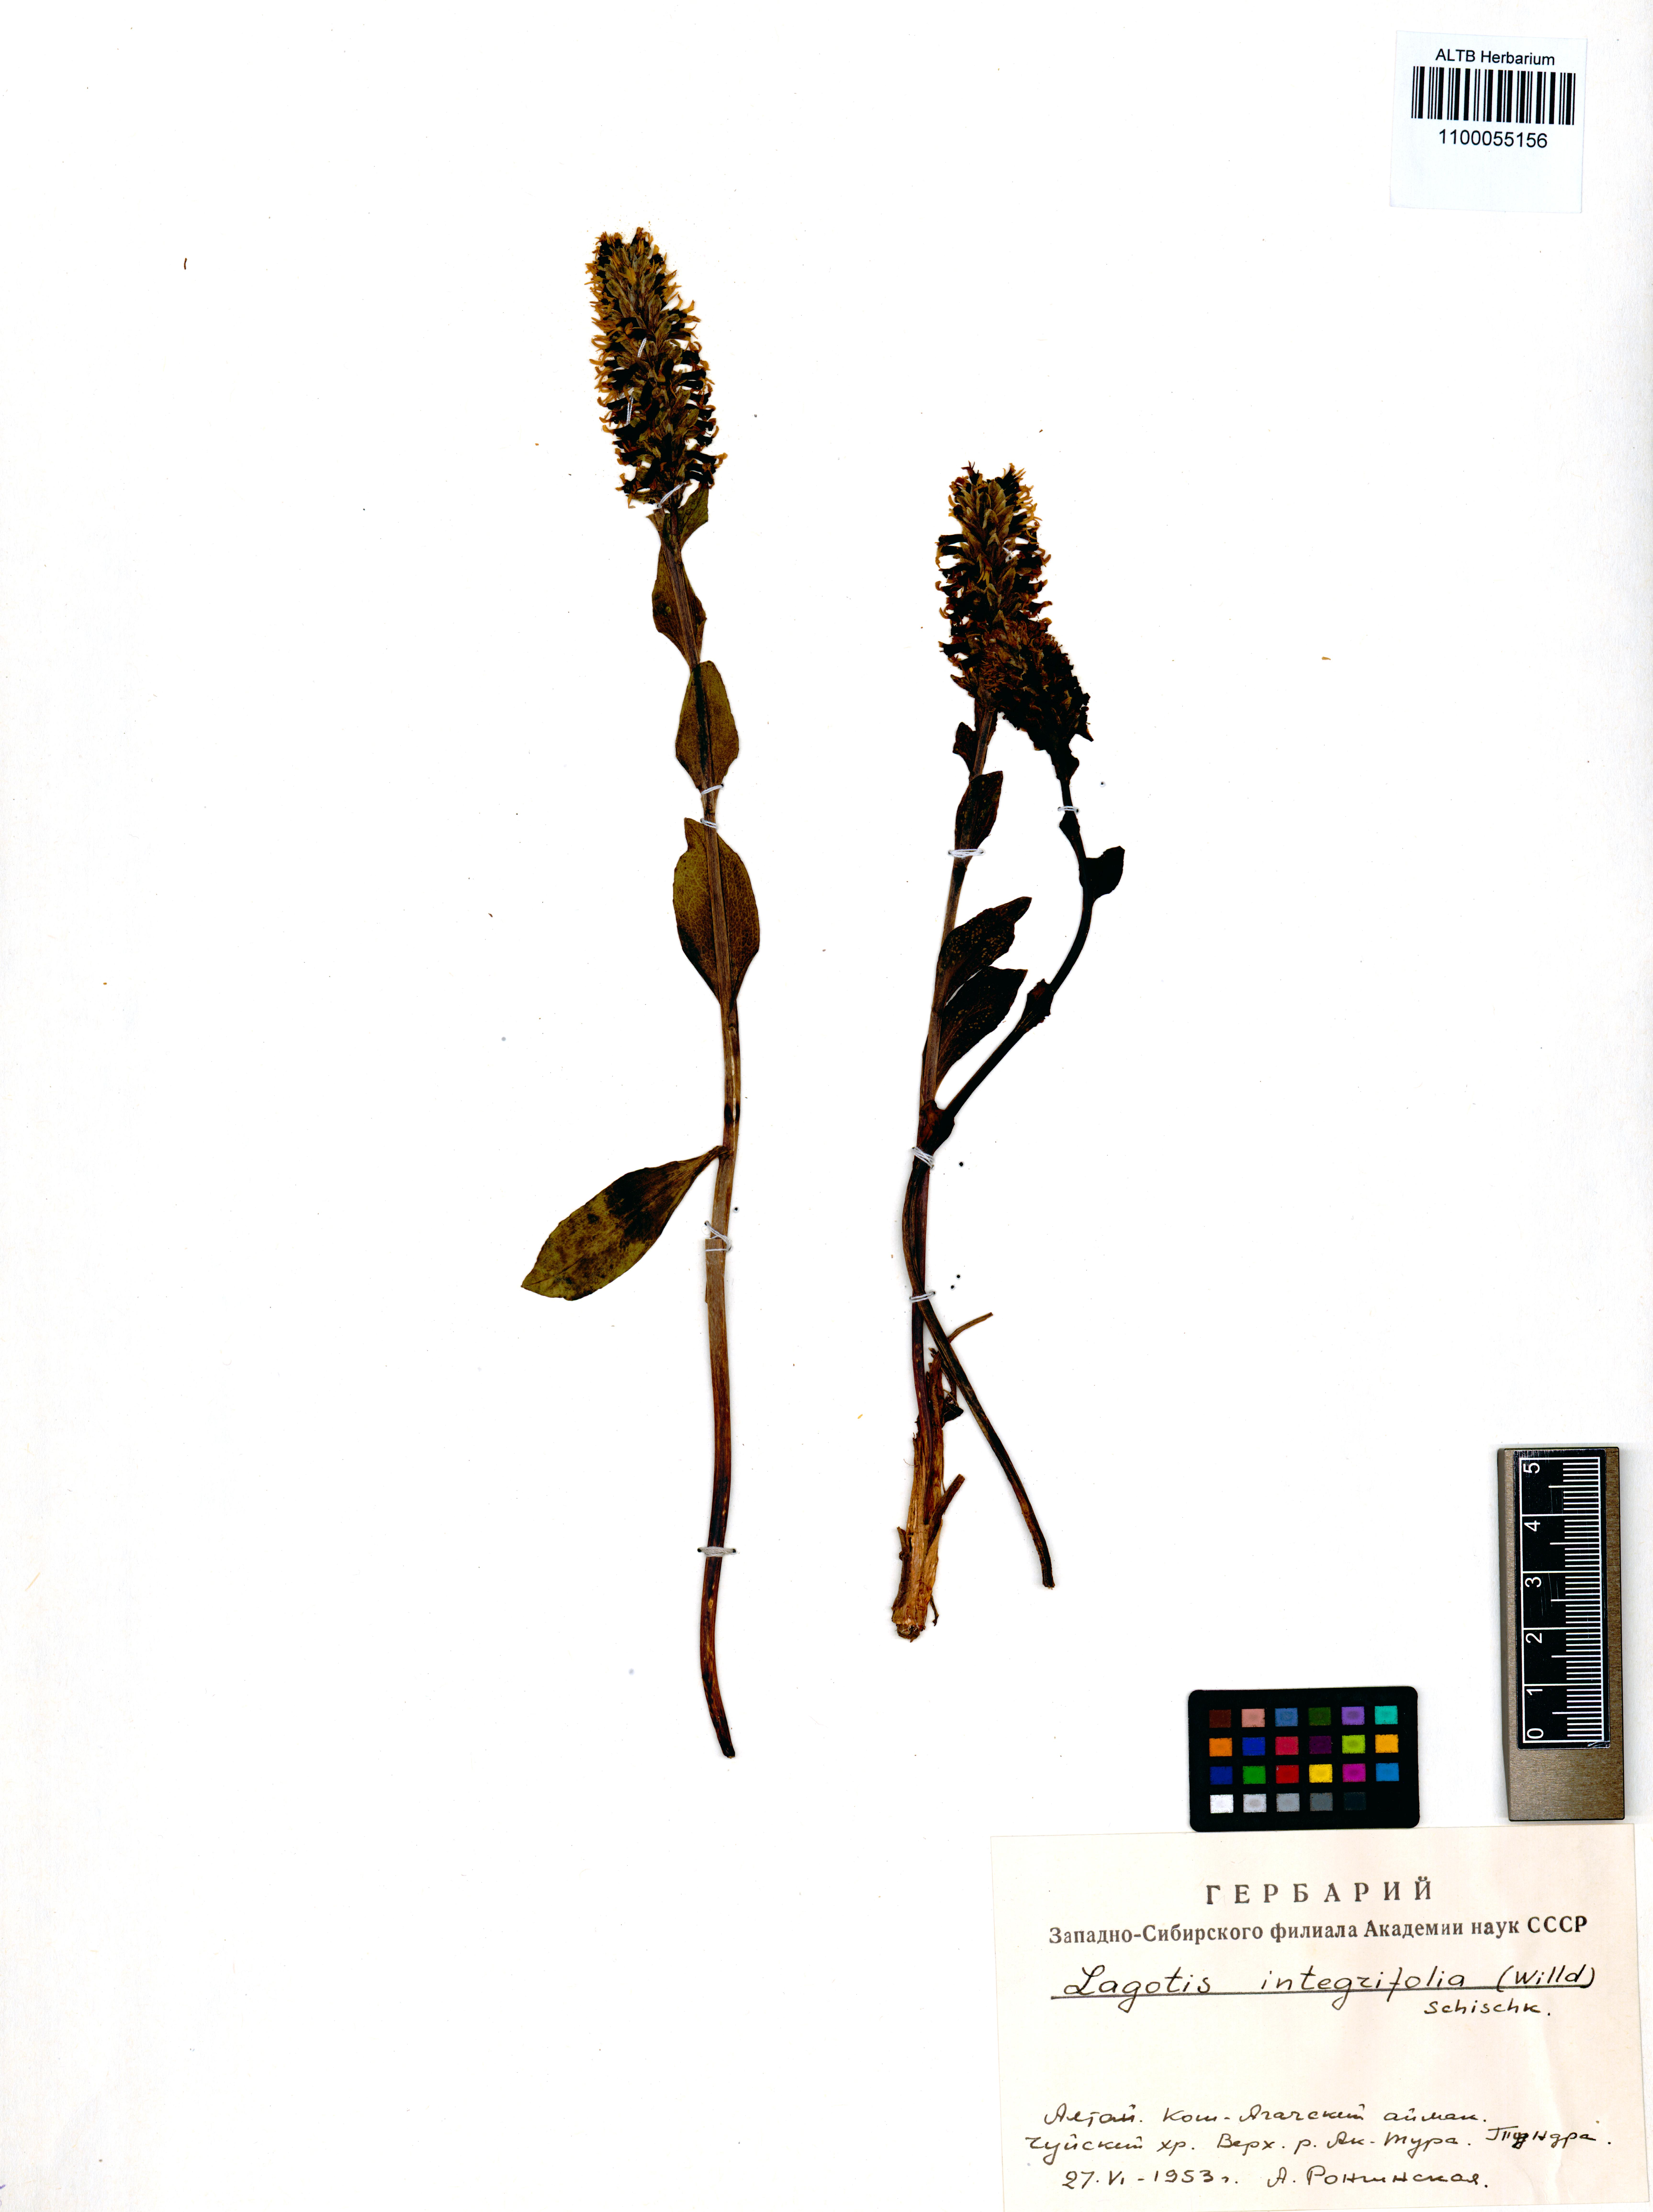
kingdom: Plantae
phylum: Tracheophyta
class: Magnoliopsida
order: Lamiales
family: Plantaginaceae
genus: Lagotis
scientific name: Lagotis integrifolia
